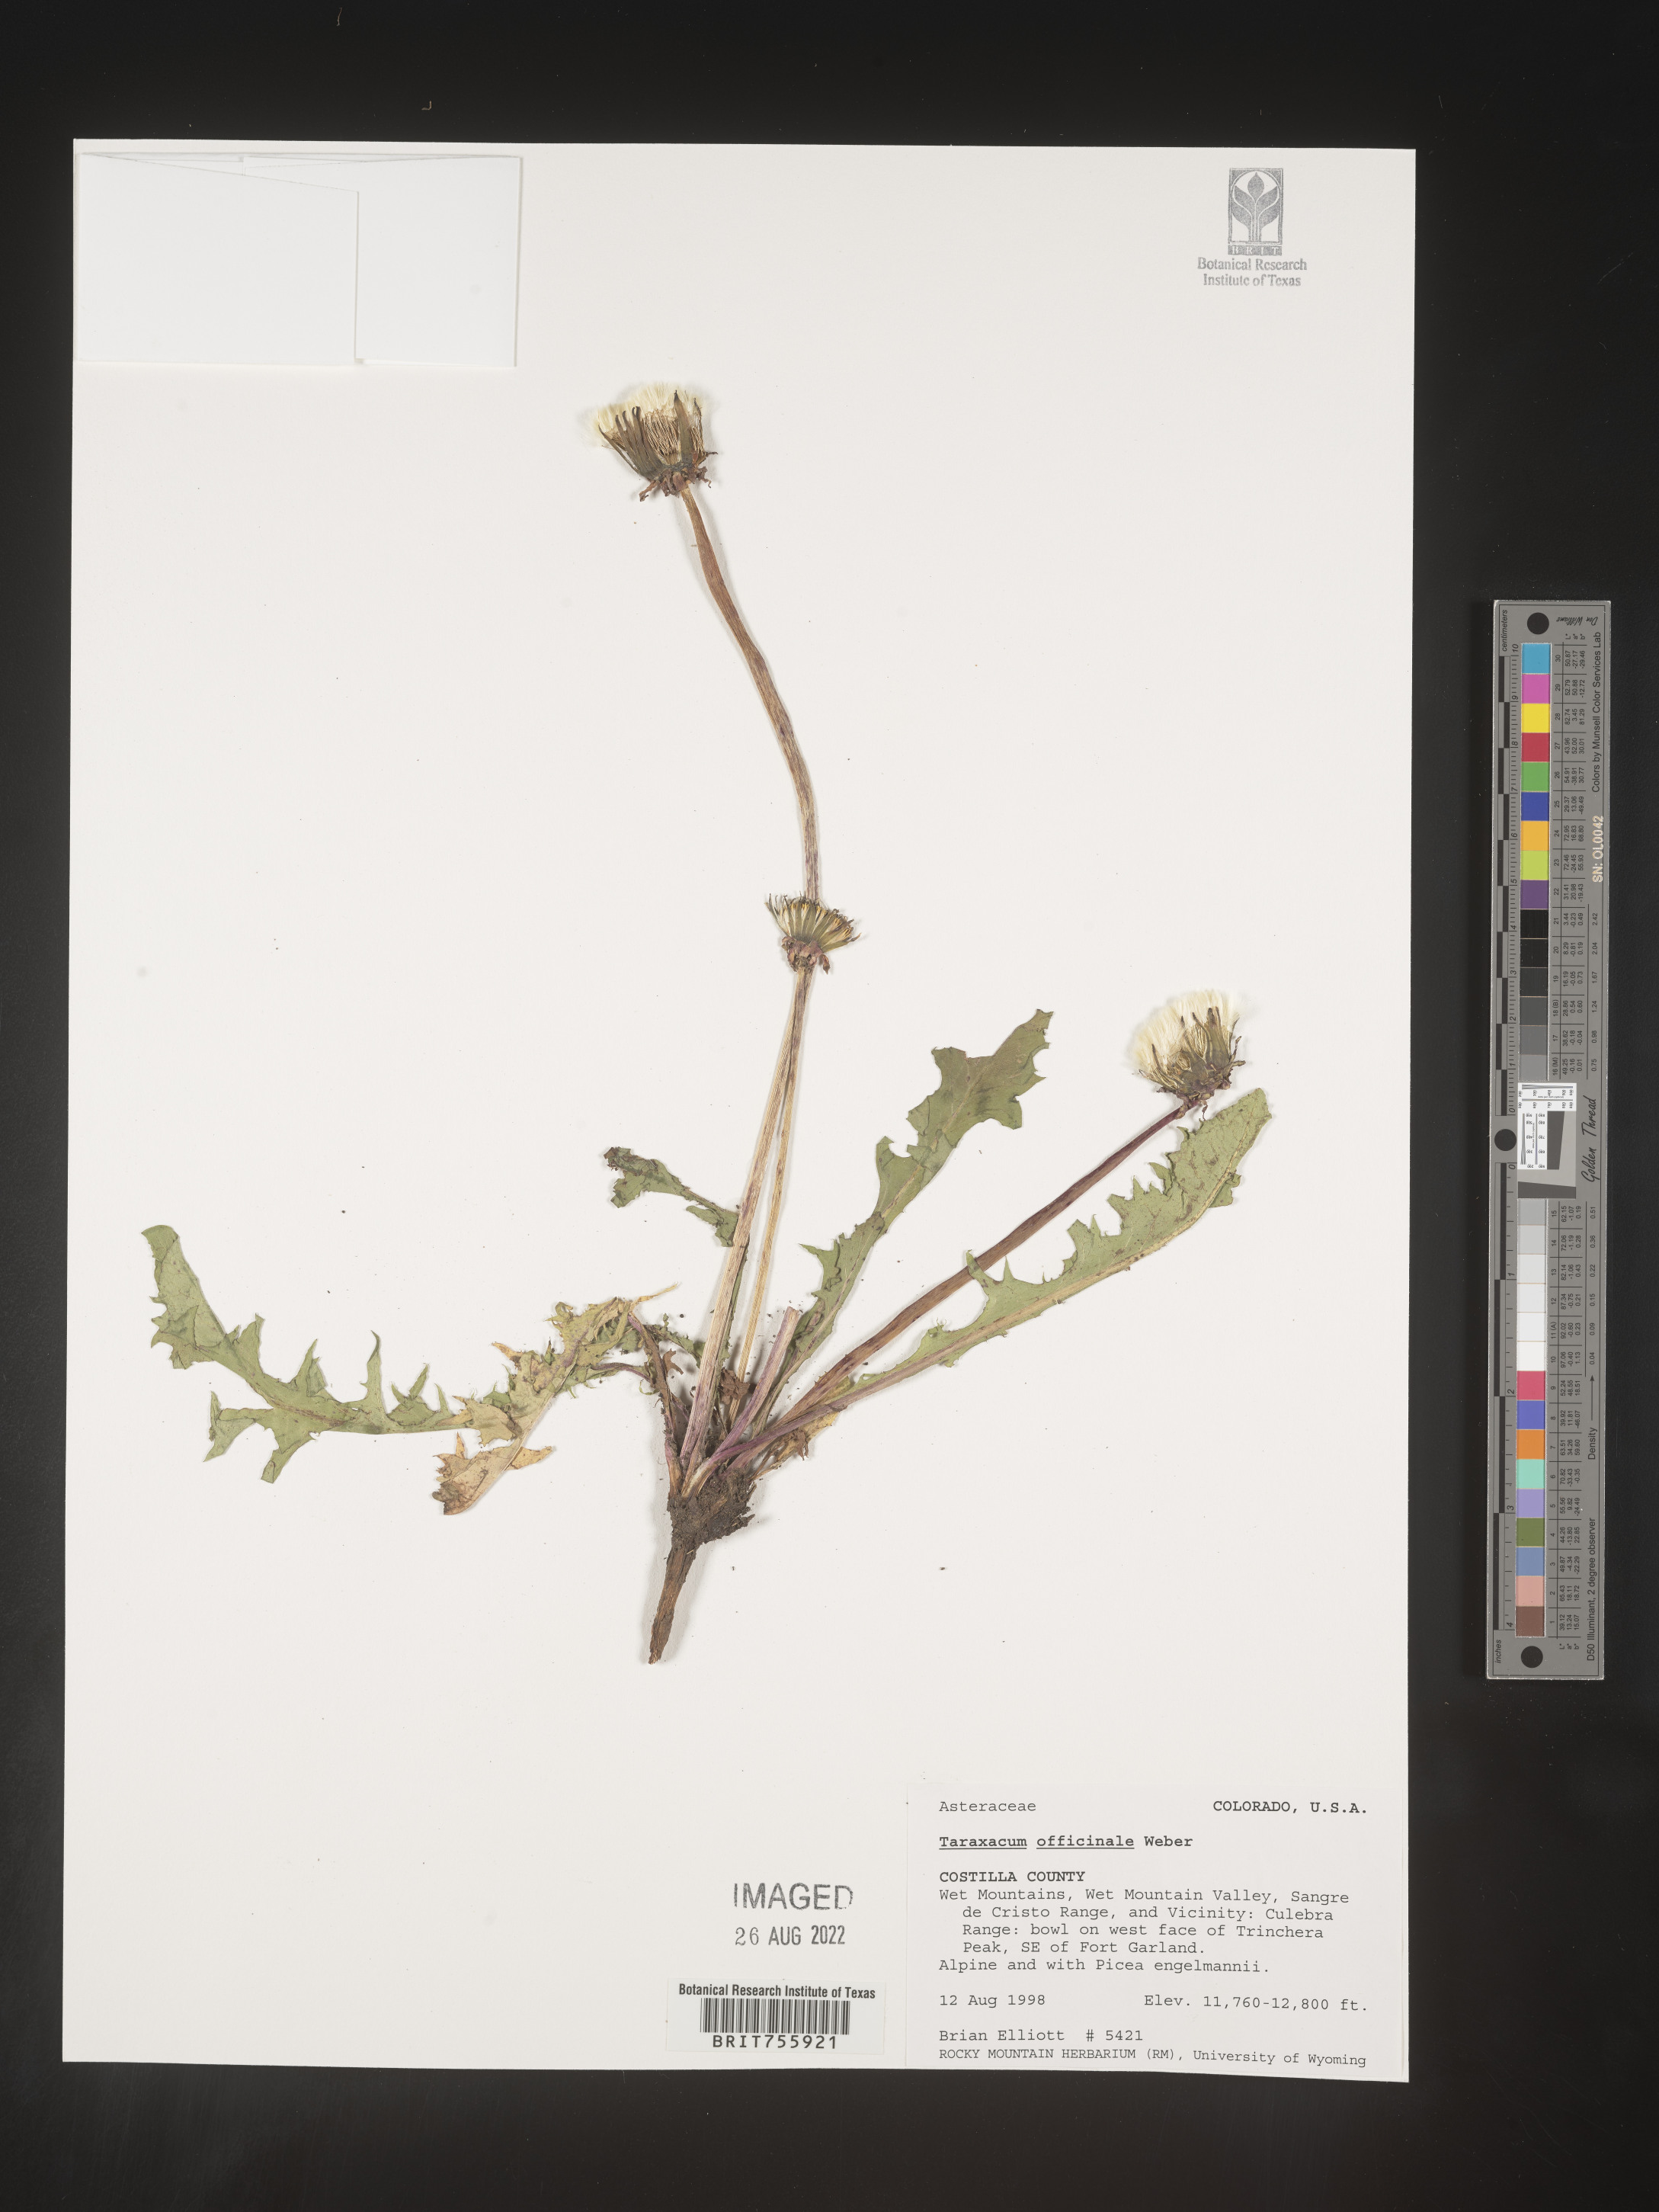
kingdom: Plantae
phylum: Tracheophyta
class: Magnoliopsida
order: Asterales
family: Asteraceae
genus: Taraxacum
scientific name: Taraxacum officinale
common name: Common dandelion
